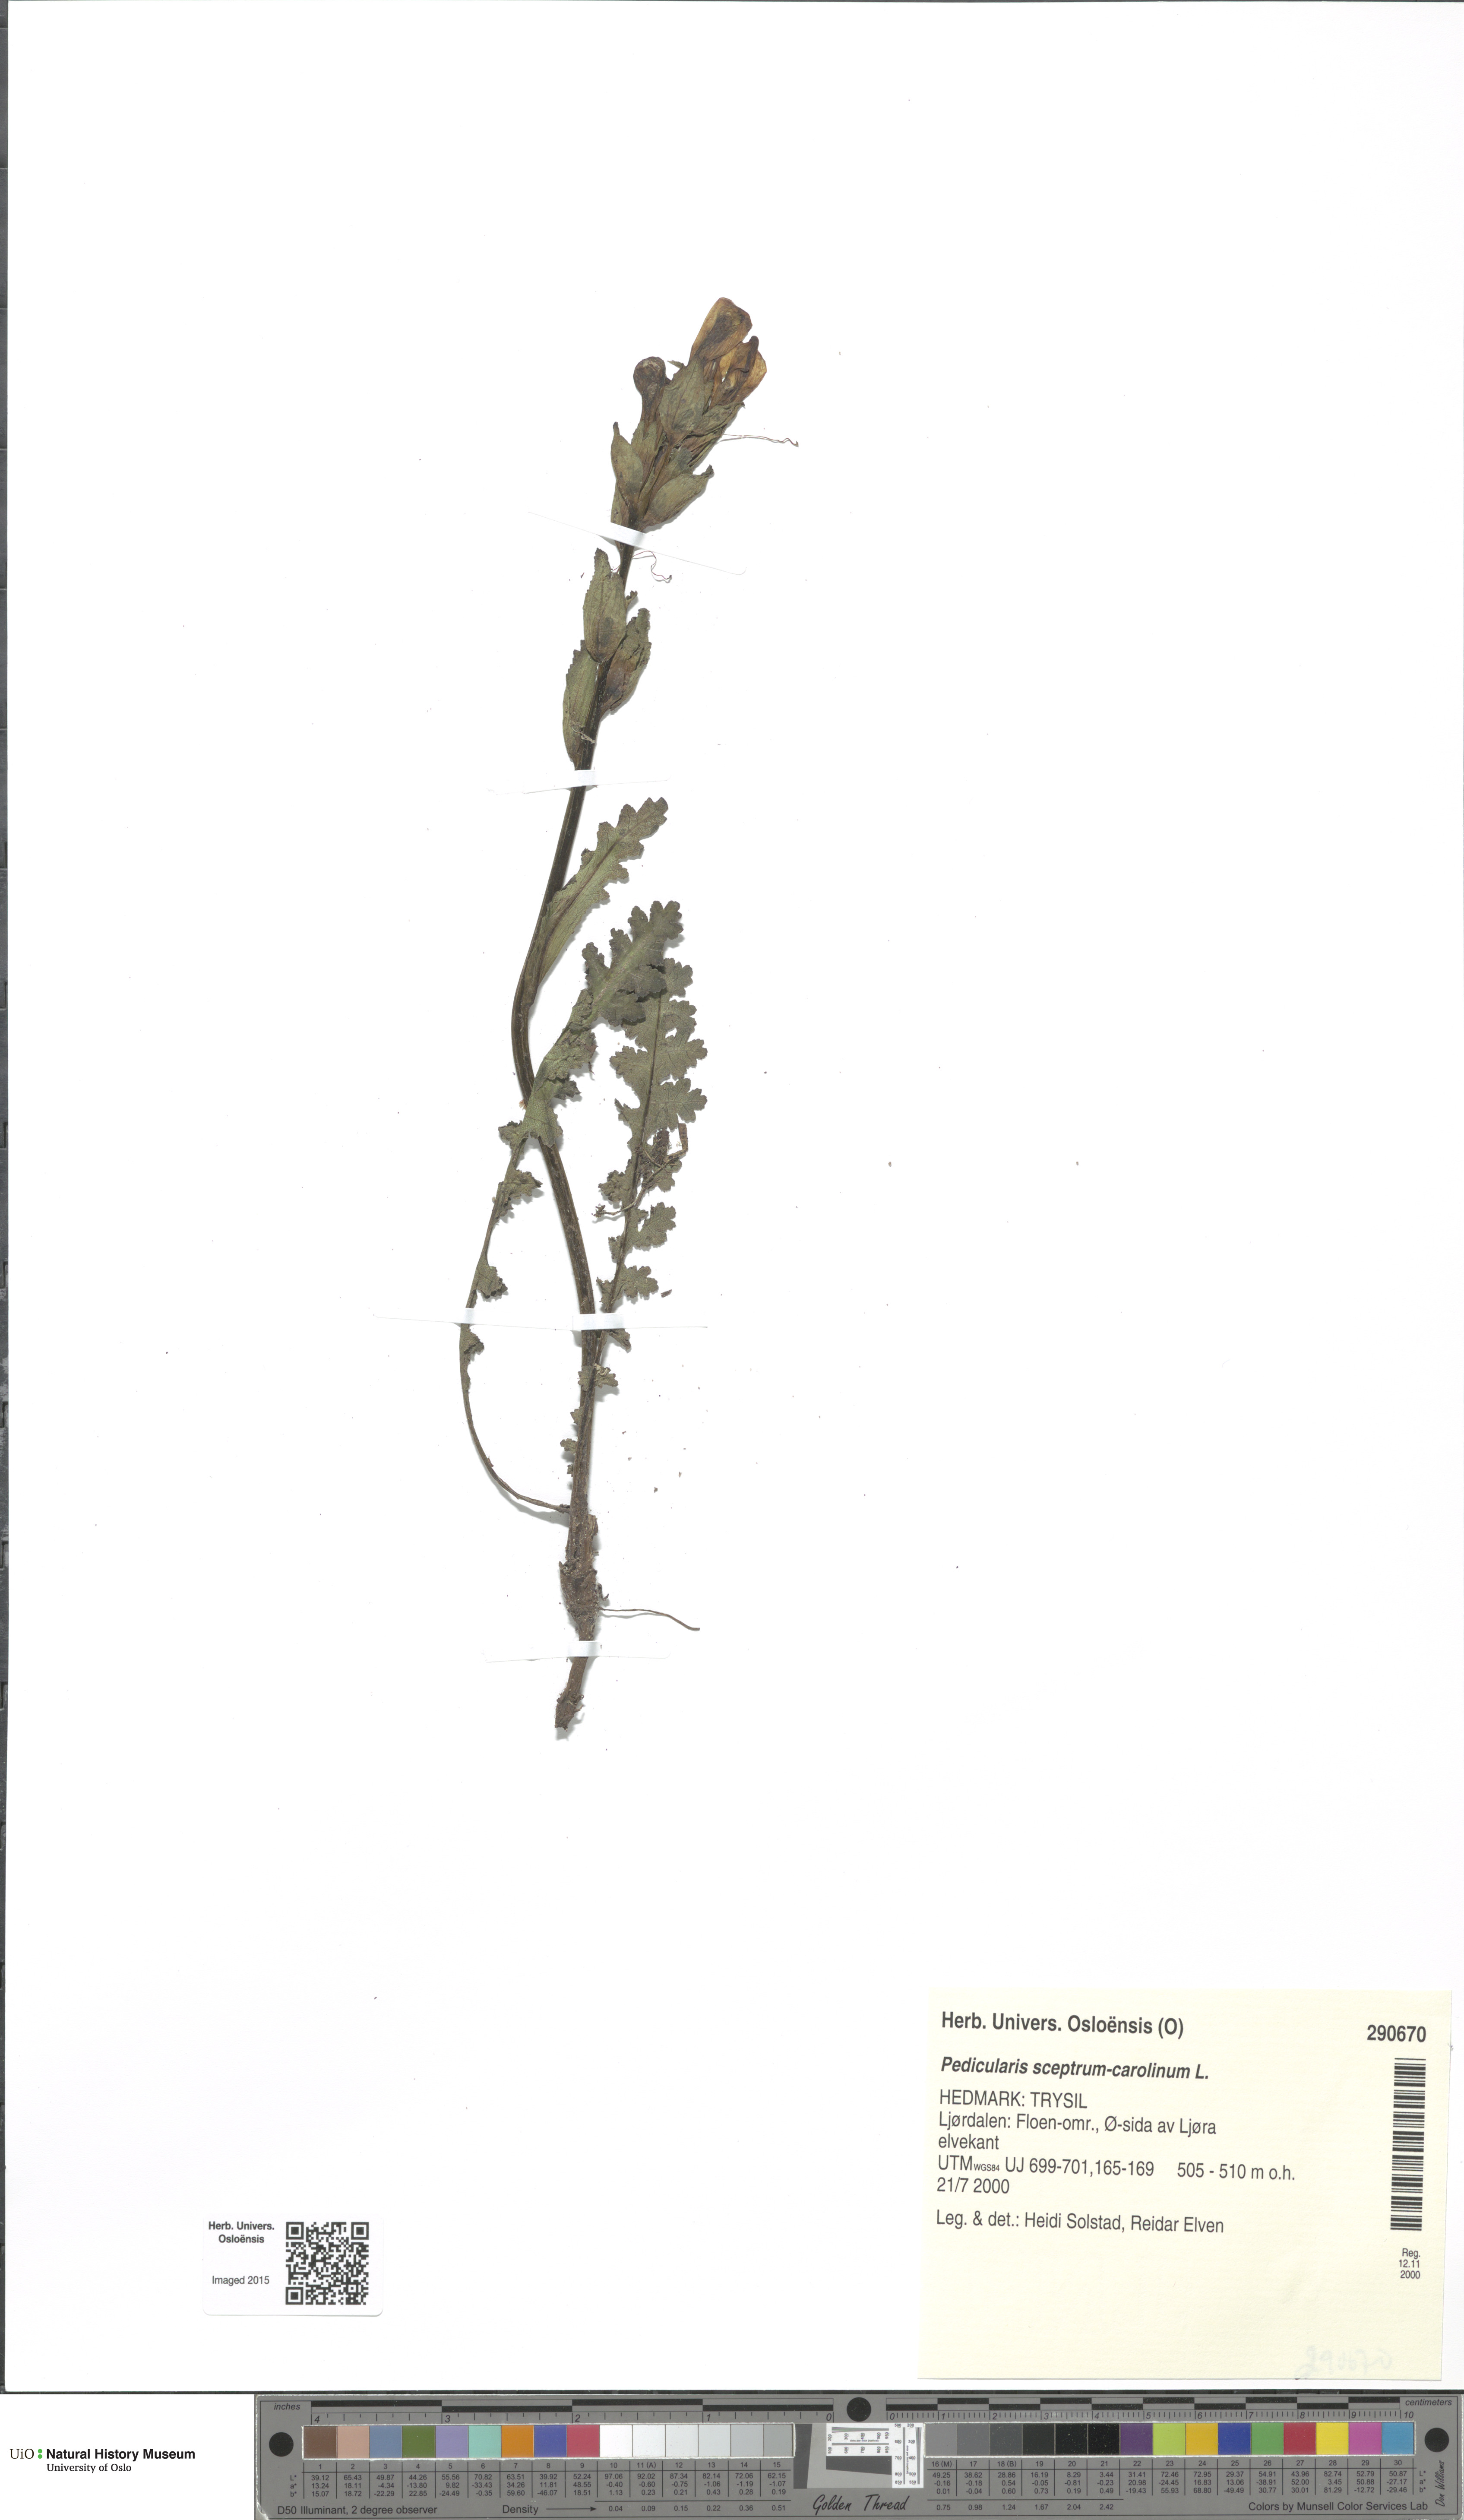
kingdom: Plantae
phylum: Tracheophyta
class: Magnoliopsida
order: Lamiales
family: Orobanchaceae
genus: Pedicularis
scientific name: Pedicularis sceptrum-carolinum
